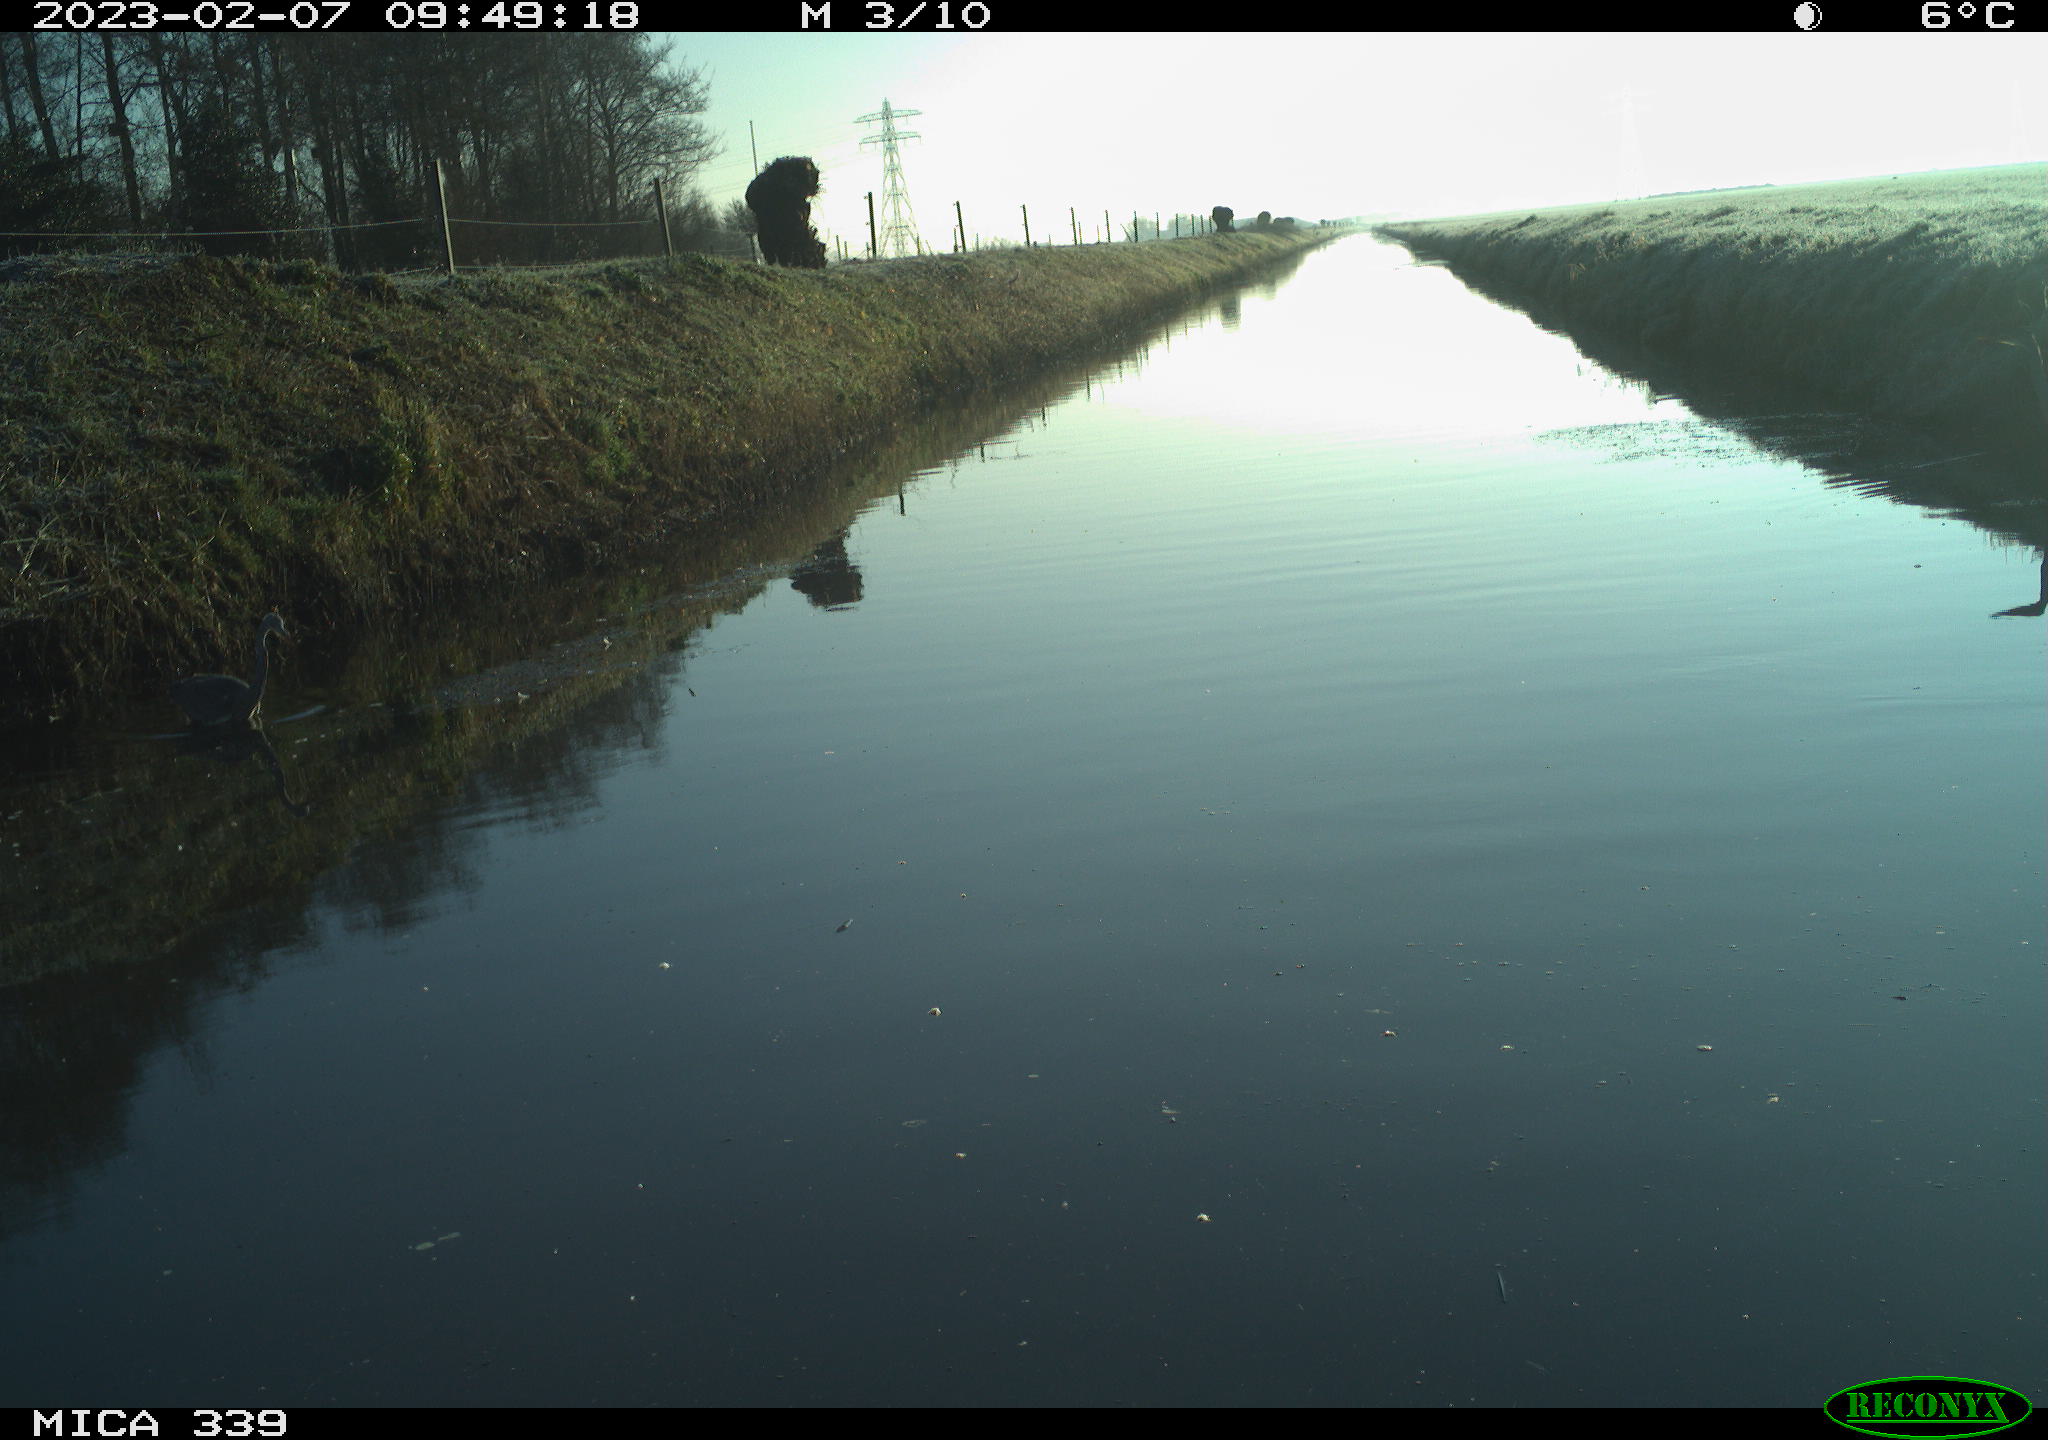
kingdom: Animalia
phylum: Chordata
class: Aves
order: Pelecaniformes
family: Ardeidae
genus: Ardea
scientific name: Ardea cinerea
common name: Grey heron
